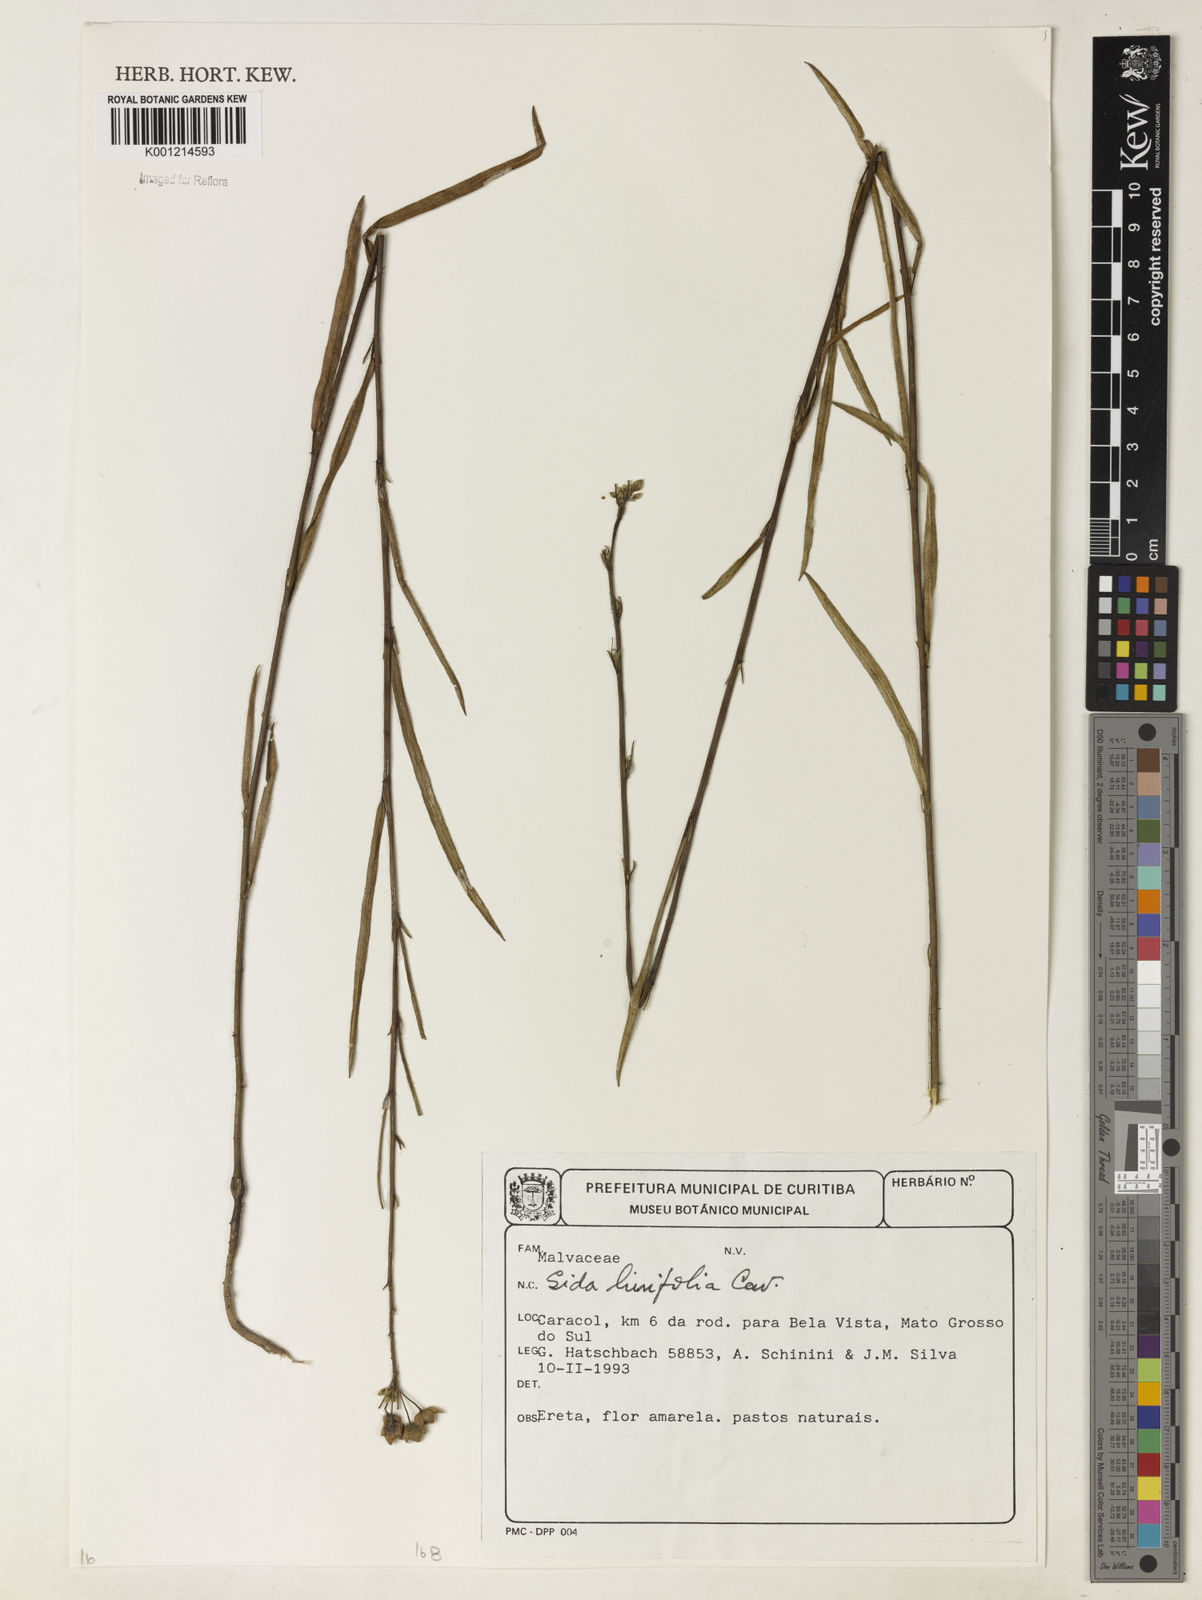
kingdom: Plantae
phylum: Tracheophyta
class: Magnoliopsida
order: Malvales
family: Malvaceae
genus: Sida
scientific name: Sida linifolia
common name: Flaxleaf fanpetals
